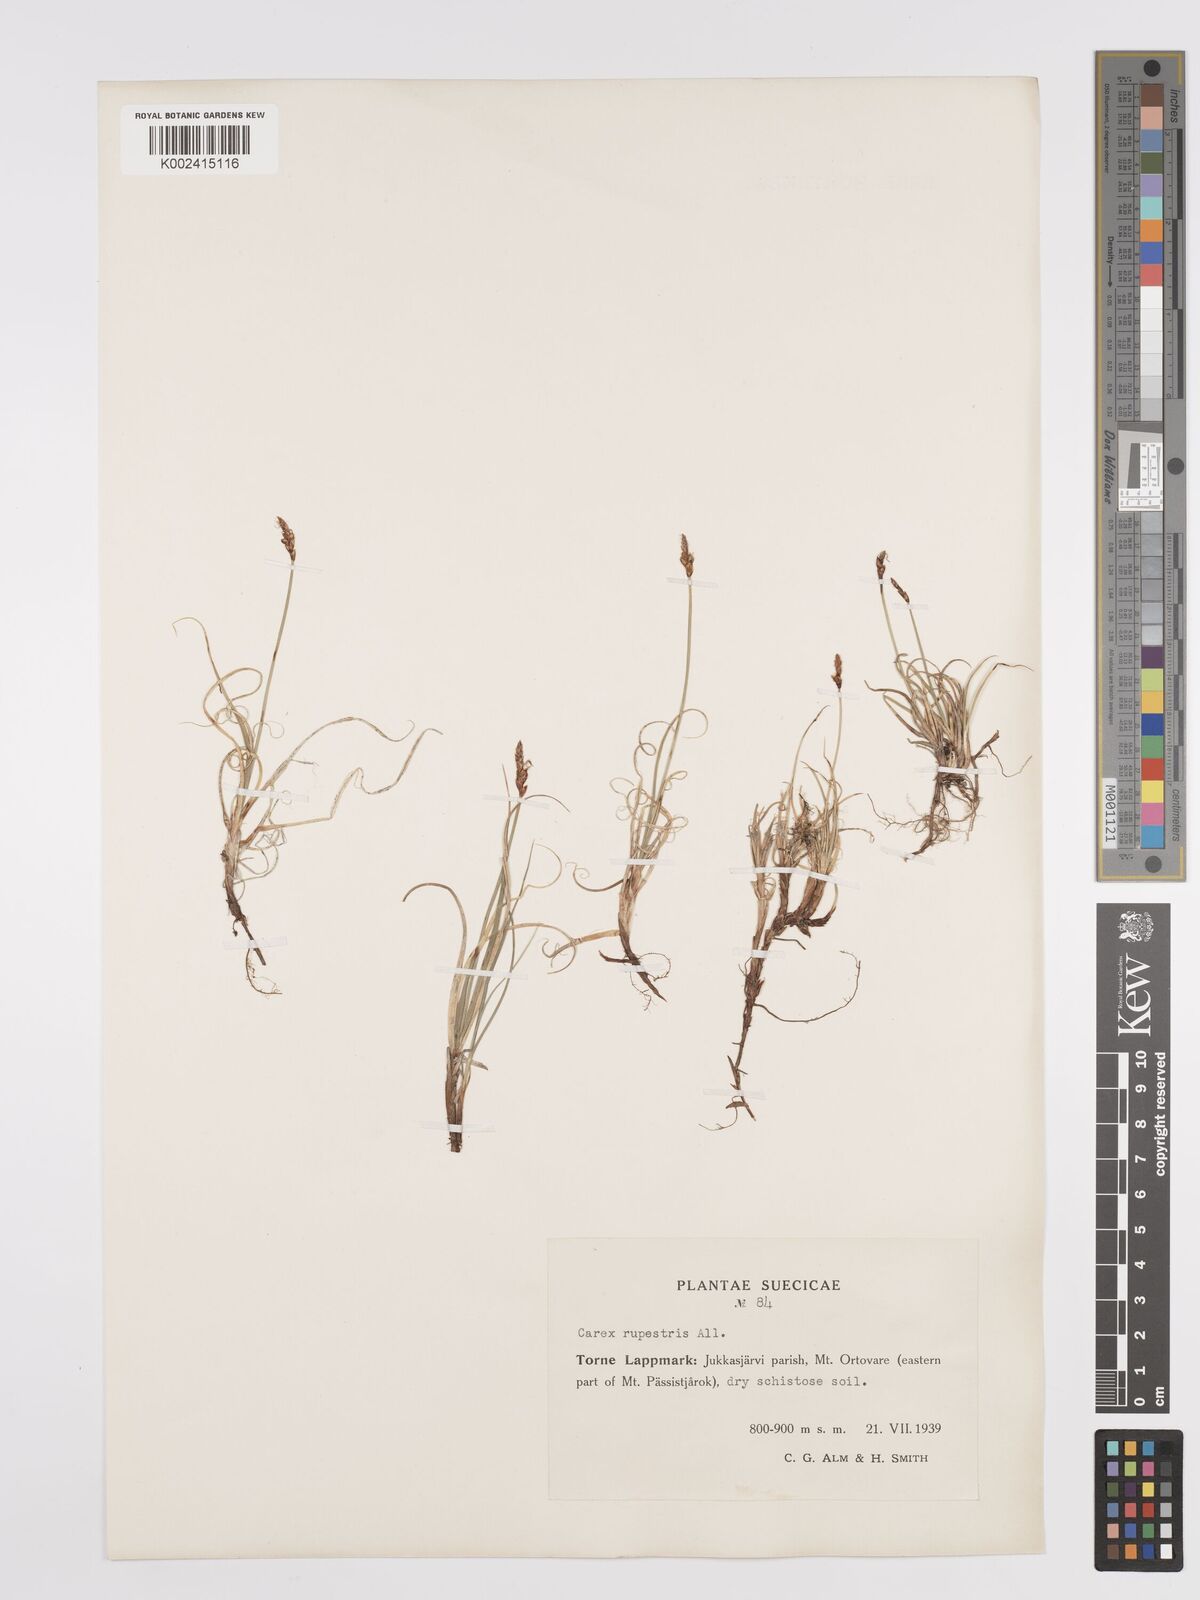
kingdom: Plantae
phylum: Tracheophyta
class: Liliopsida
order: Poales
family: Cyperaceae
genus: Carex
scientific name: Carex rupestris
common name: Rock sedge
